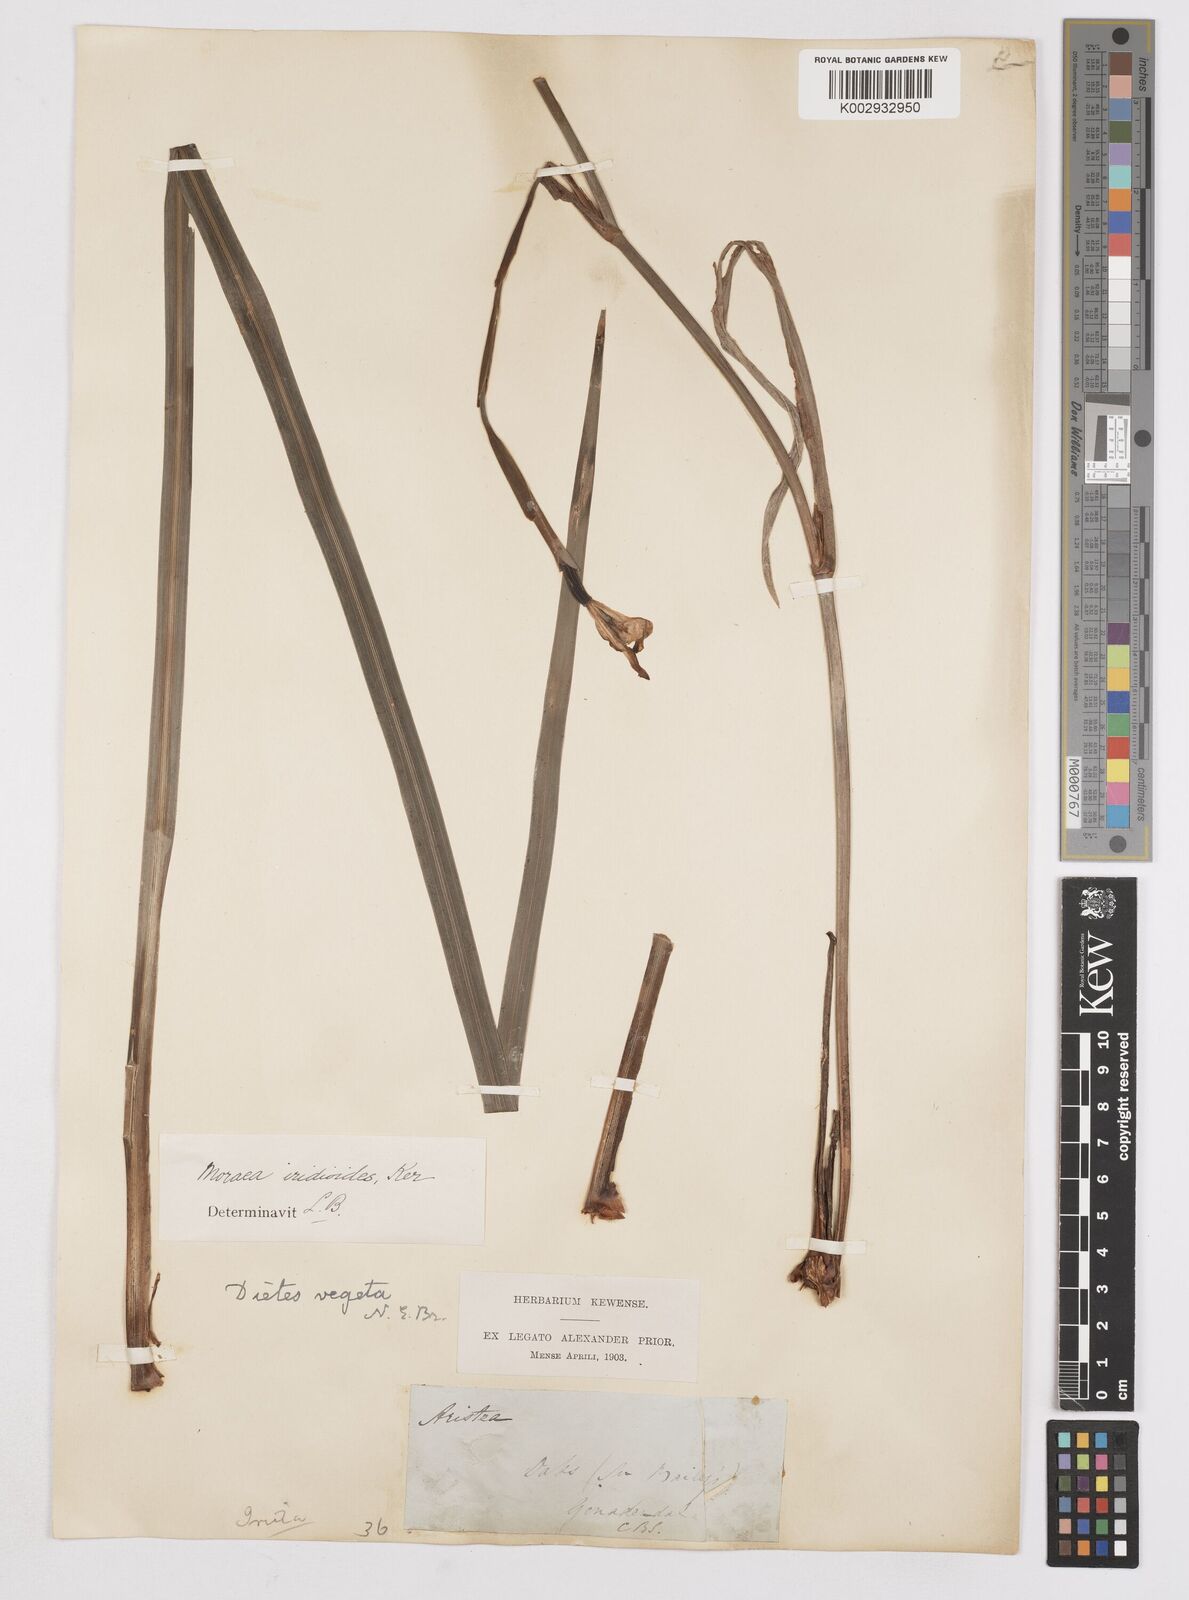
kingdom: Plantae
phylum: Tracheophyta
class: Liliopsida
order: Asparagales
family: Iridaceae
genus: Dietes
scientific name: Dietes iridioides
